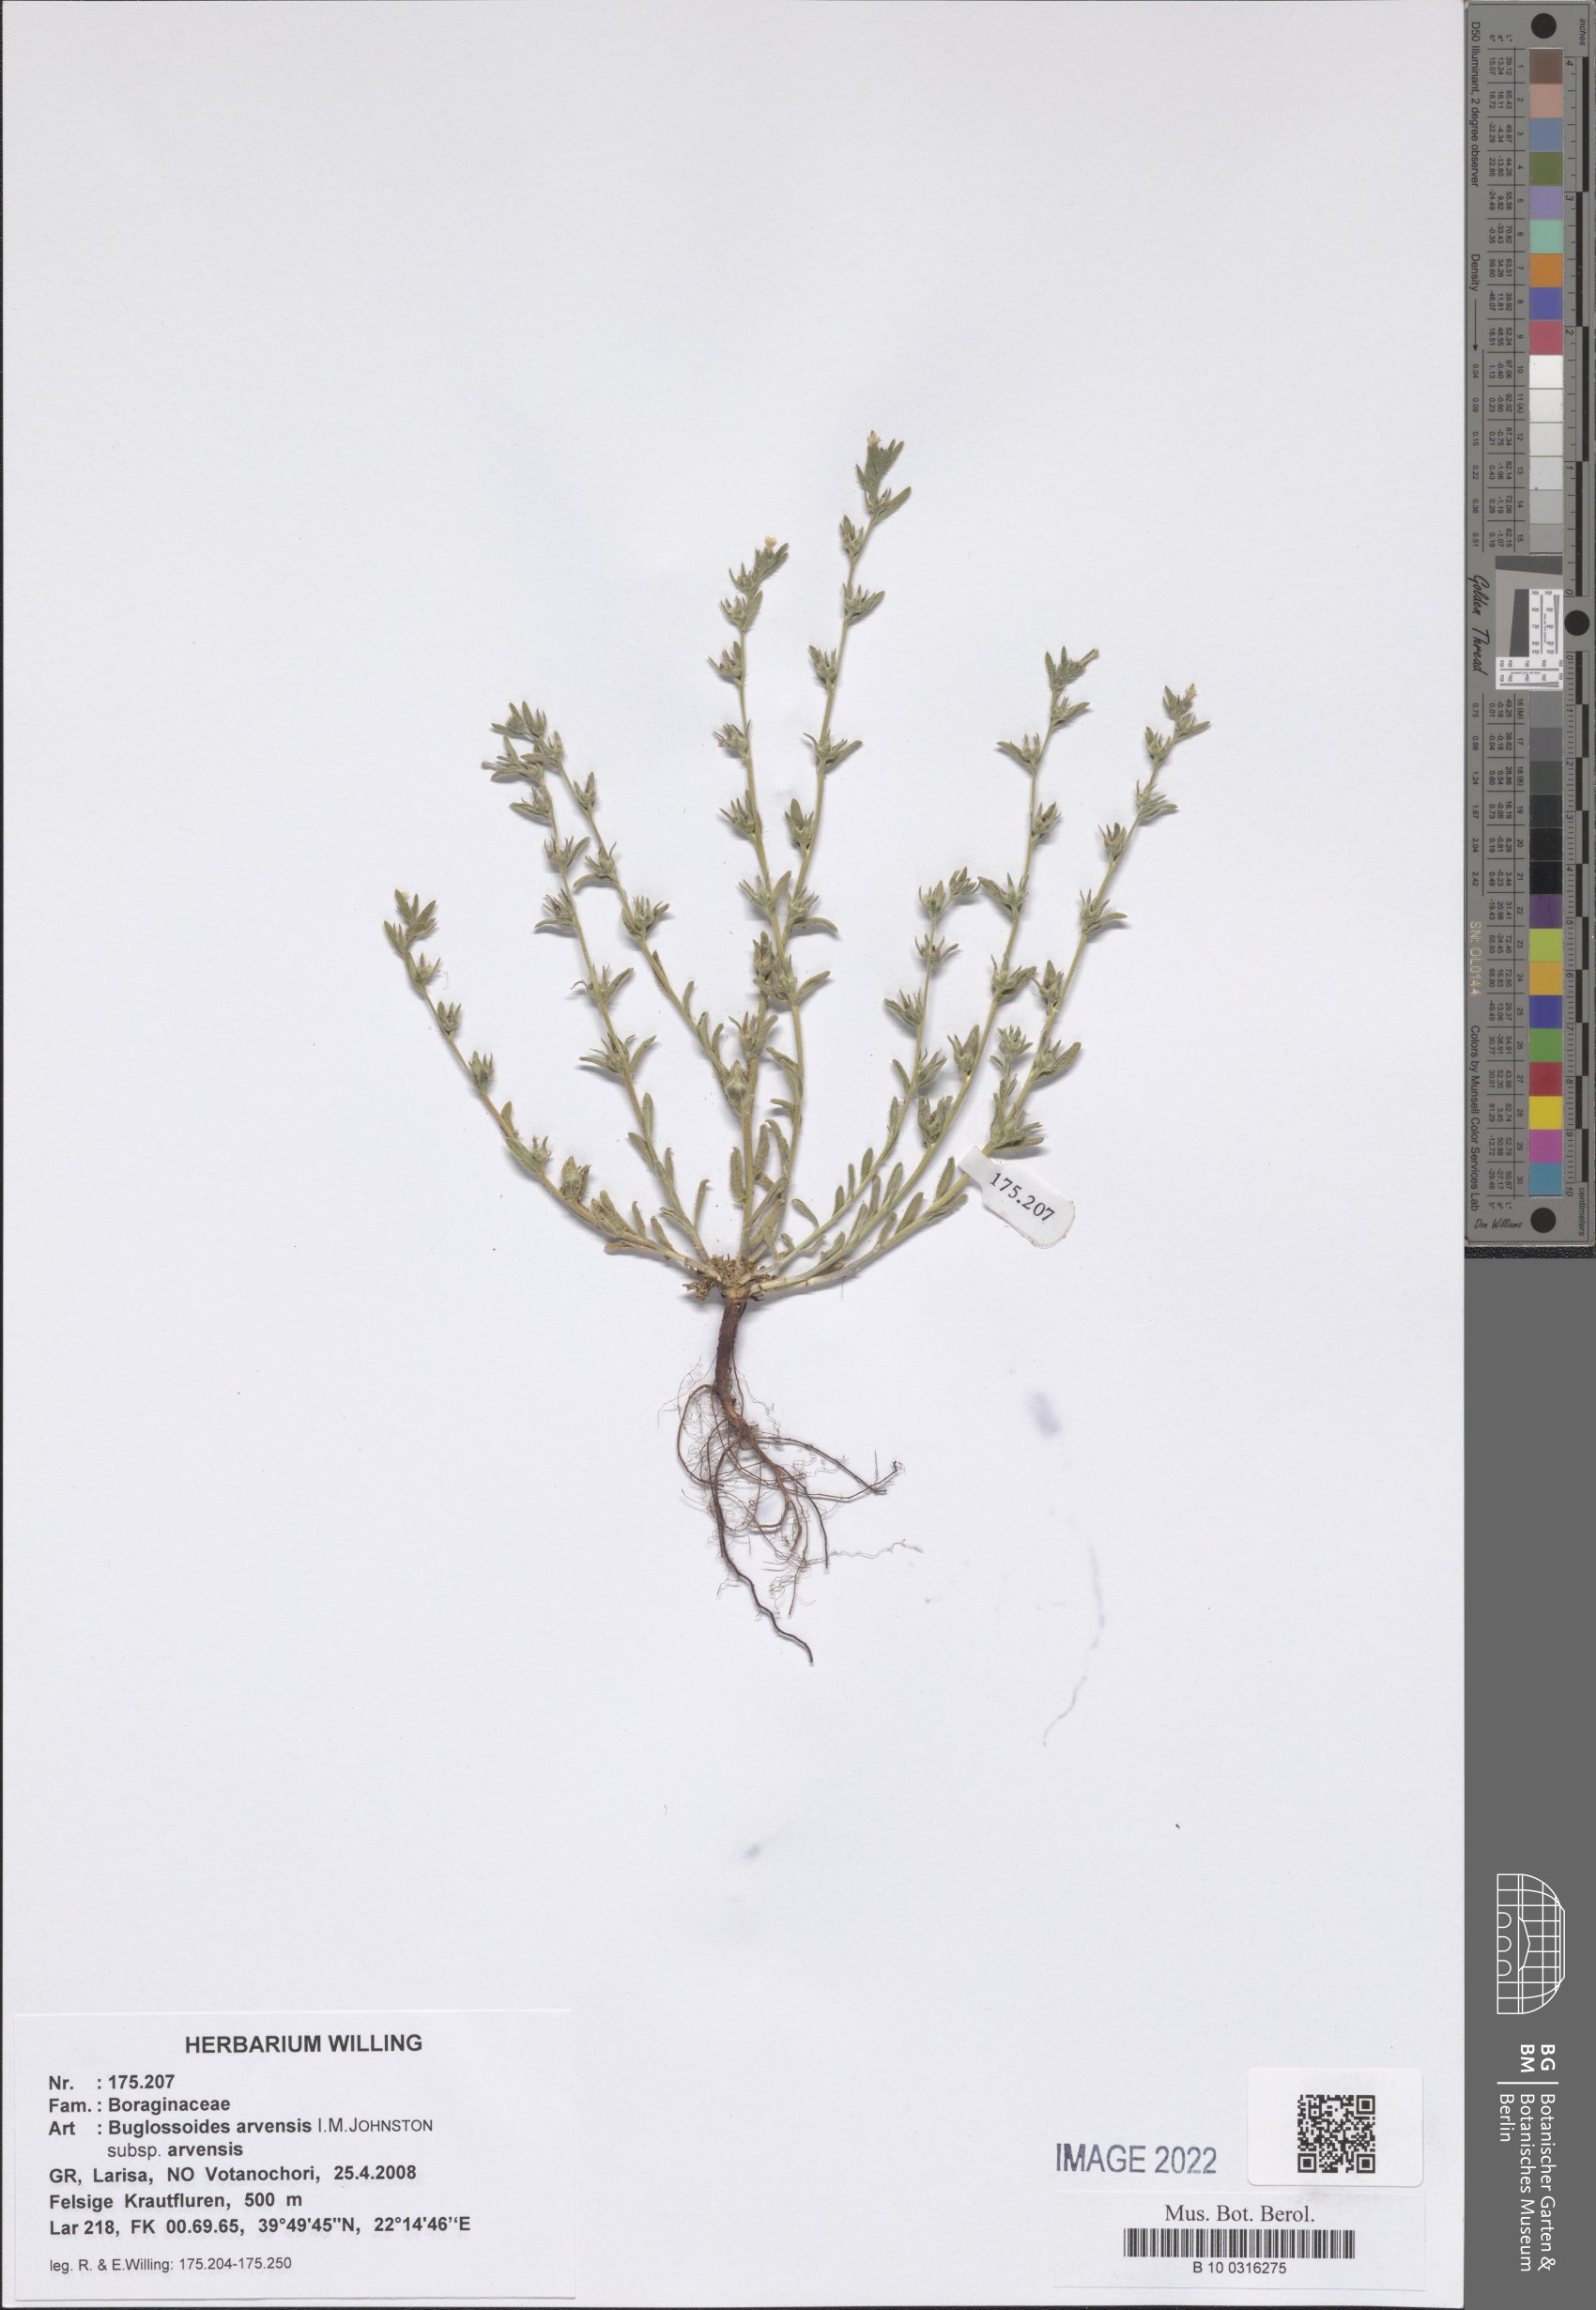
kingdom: Plantae
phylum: Tracheophyta
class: Magnoliopsida
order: Boraginales
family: Boraginaceae
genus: Buglossoides
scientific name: Buglossoides arvensis
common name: Corn gromwell
